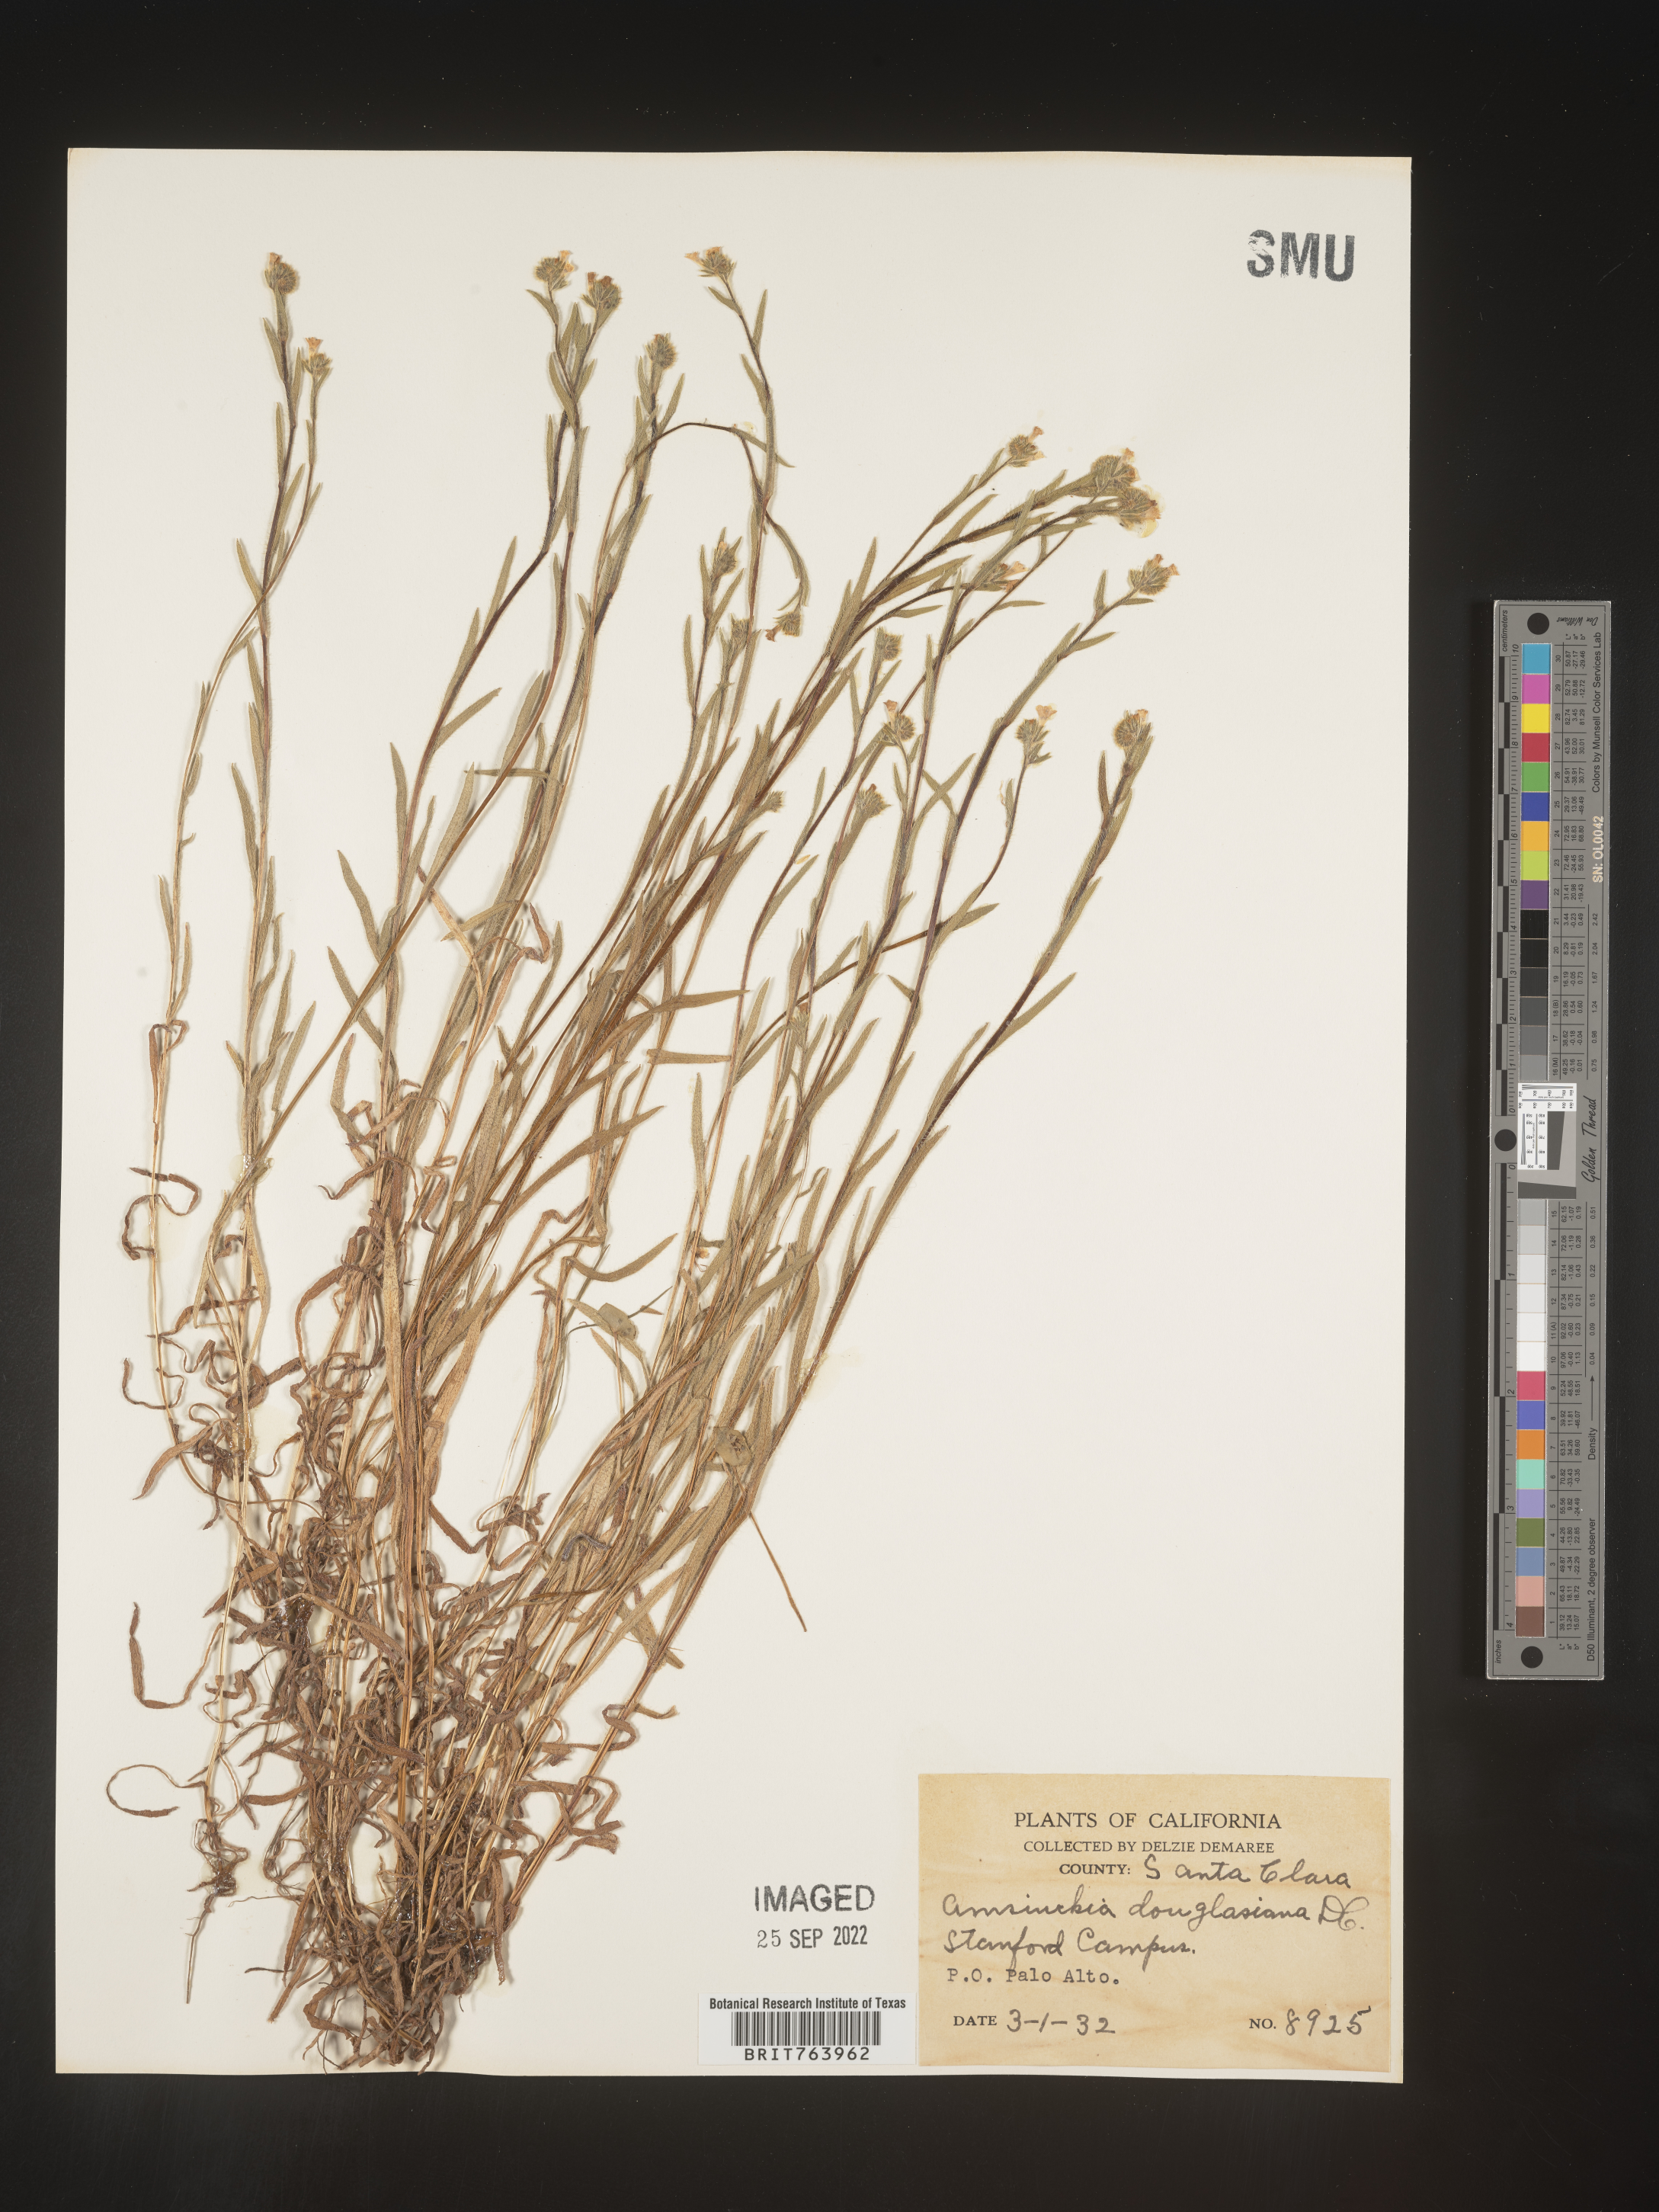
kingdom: Plantae
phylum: Tracheophyta
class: Magnoliopsida
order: Boraginales
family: Boraginaceae
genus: Amsinckia
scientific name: Amsinckia
